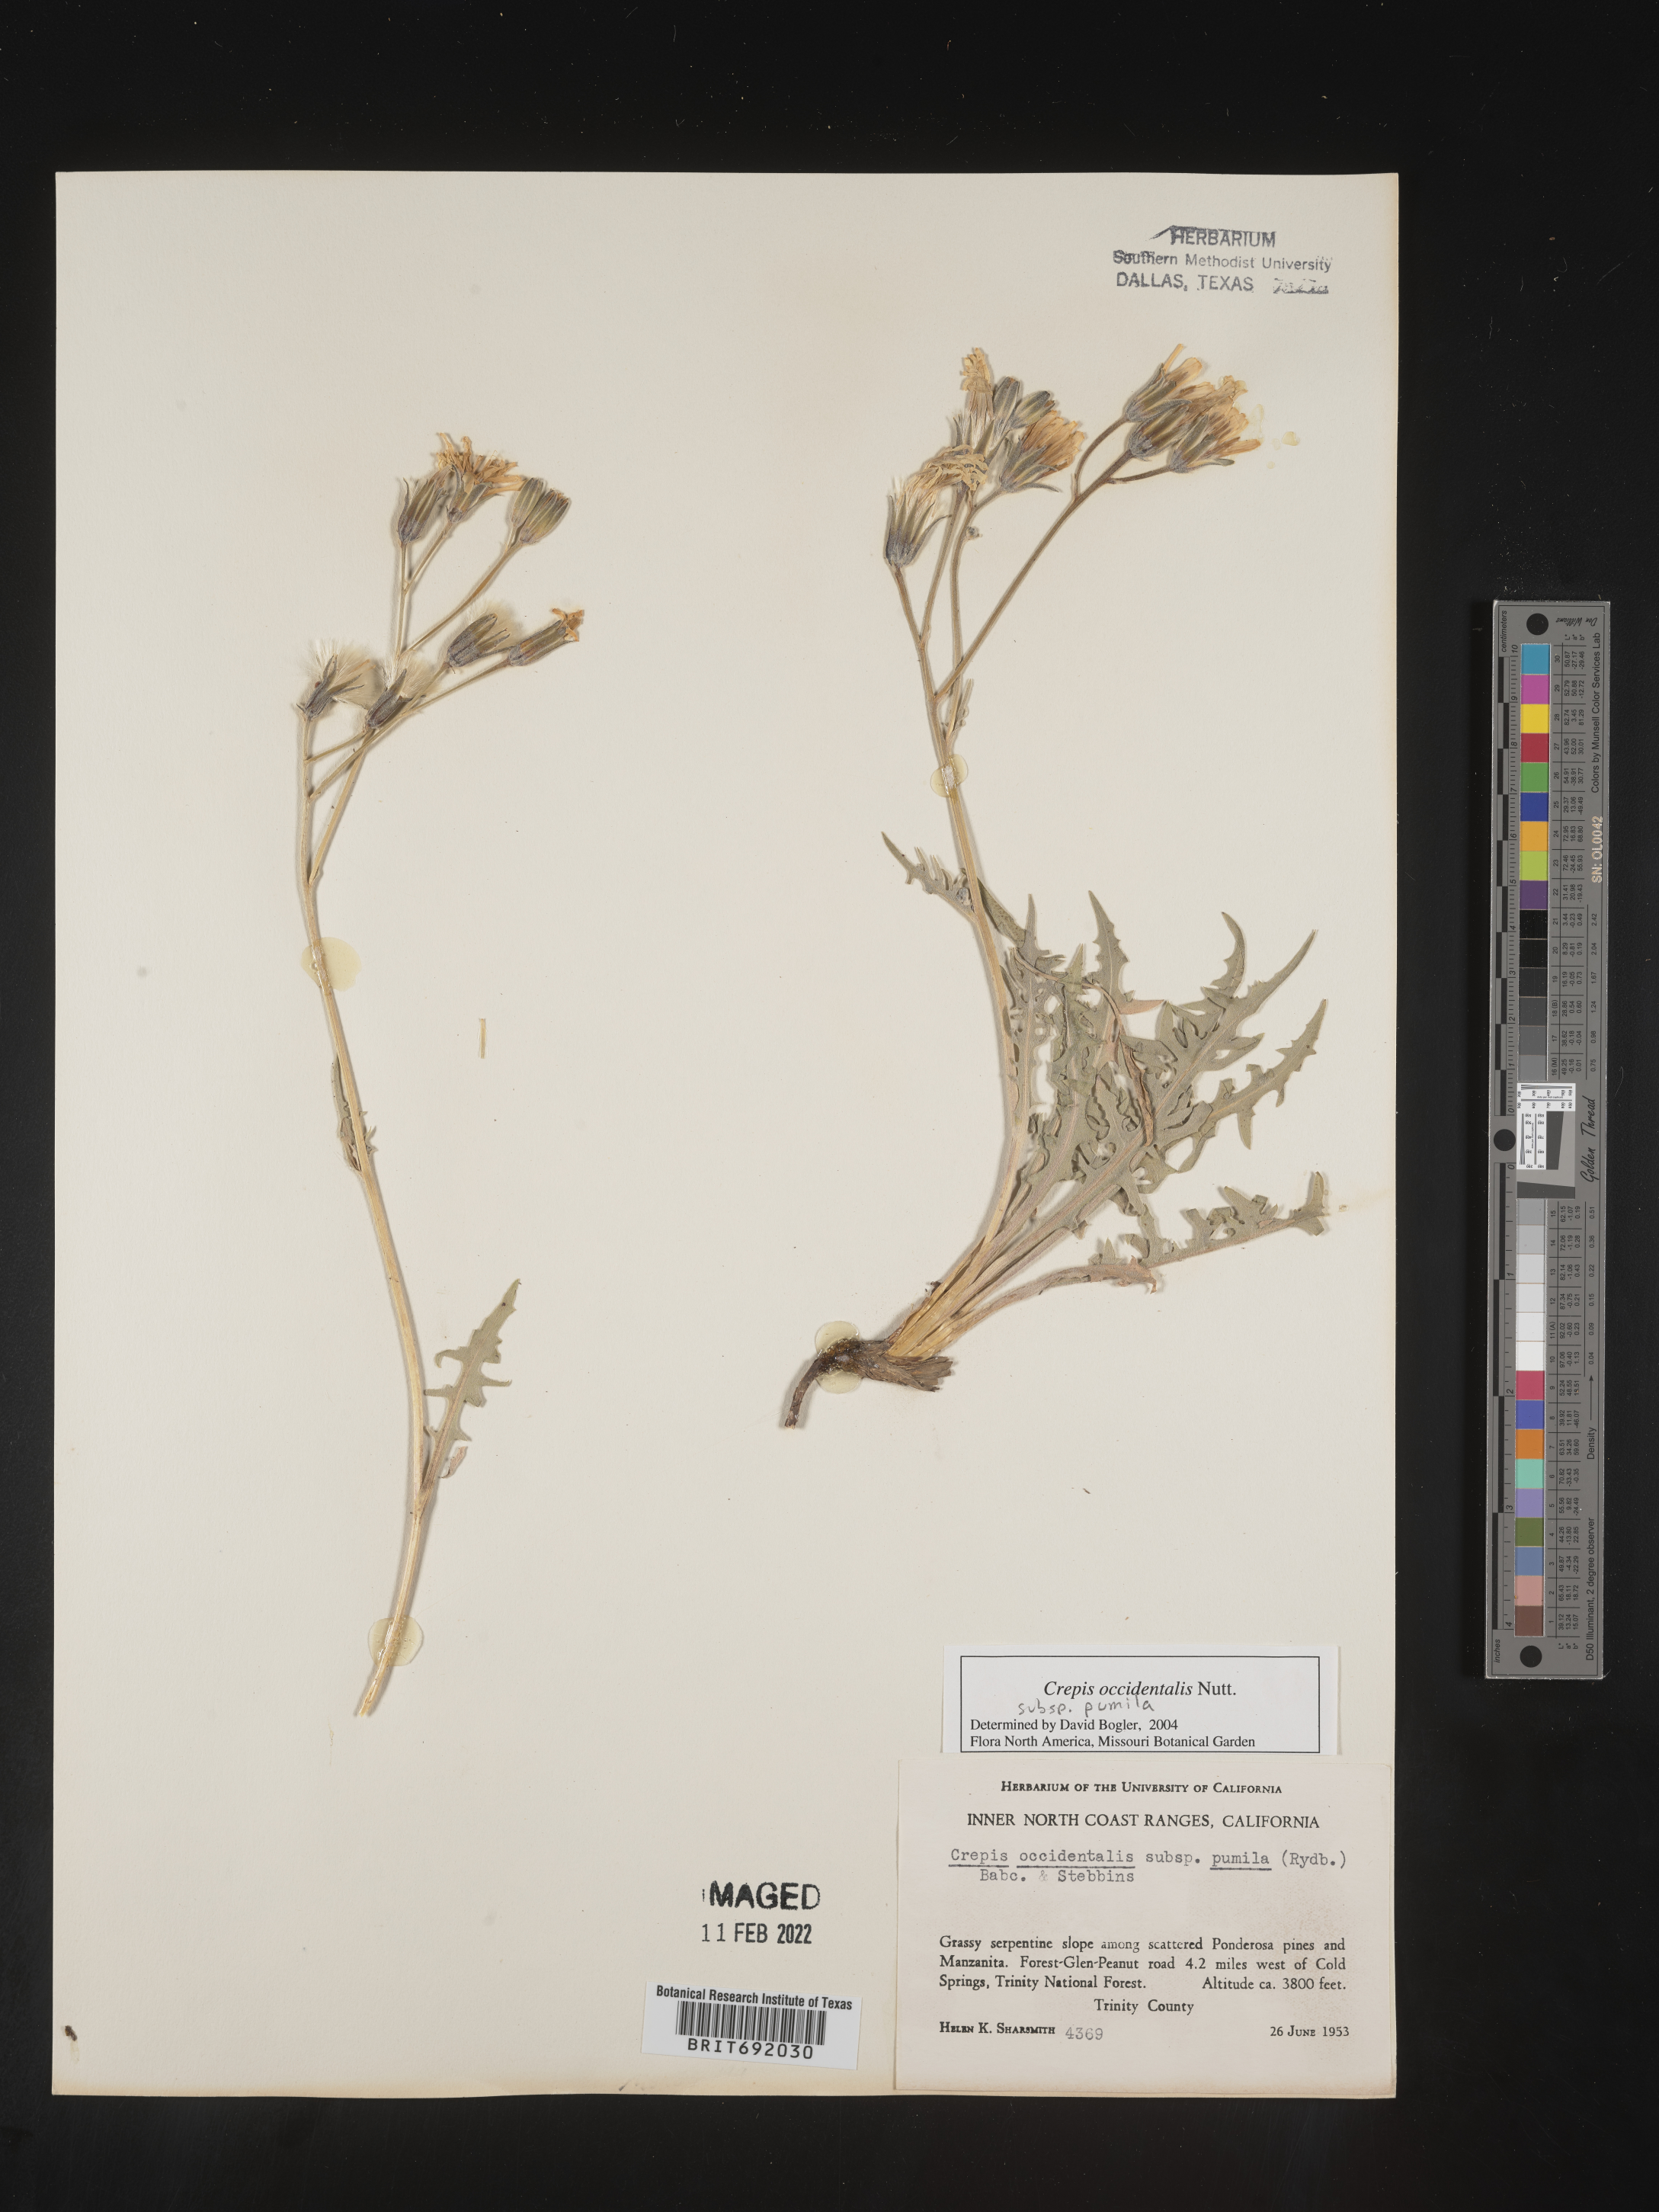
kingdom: Plantae
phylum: Tracheophyta
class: Magnoliopsida
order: Asterales
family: Asteraceae
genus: Crepis
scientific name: Crepis occidentalis
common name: Gray hawk's-beard
